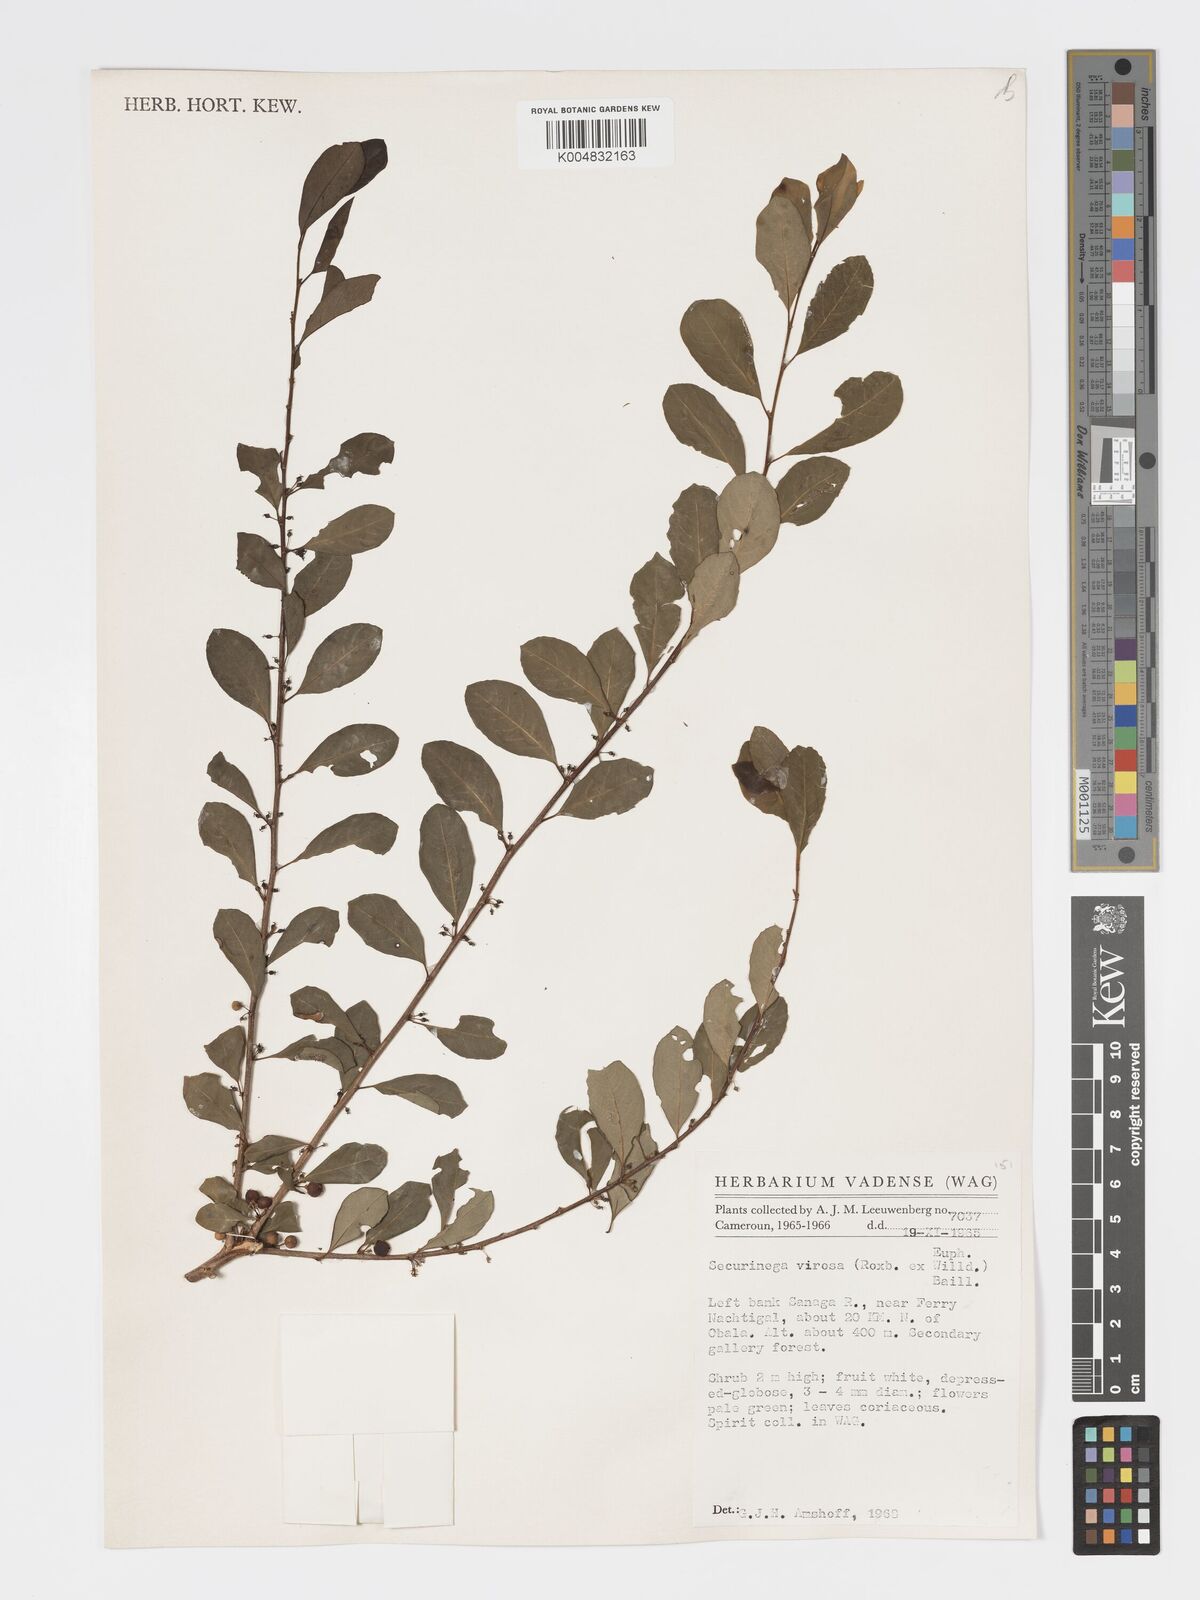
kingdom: Plantae
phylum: Tracheophyta
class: Magnoliopsida
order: Malpighiales
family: Phyllanthaceae
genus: Flueggea
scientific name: Flueggea virosa
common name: Common bushweed
